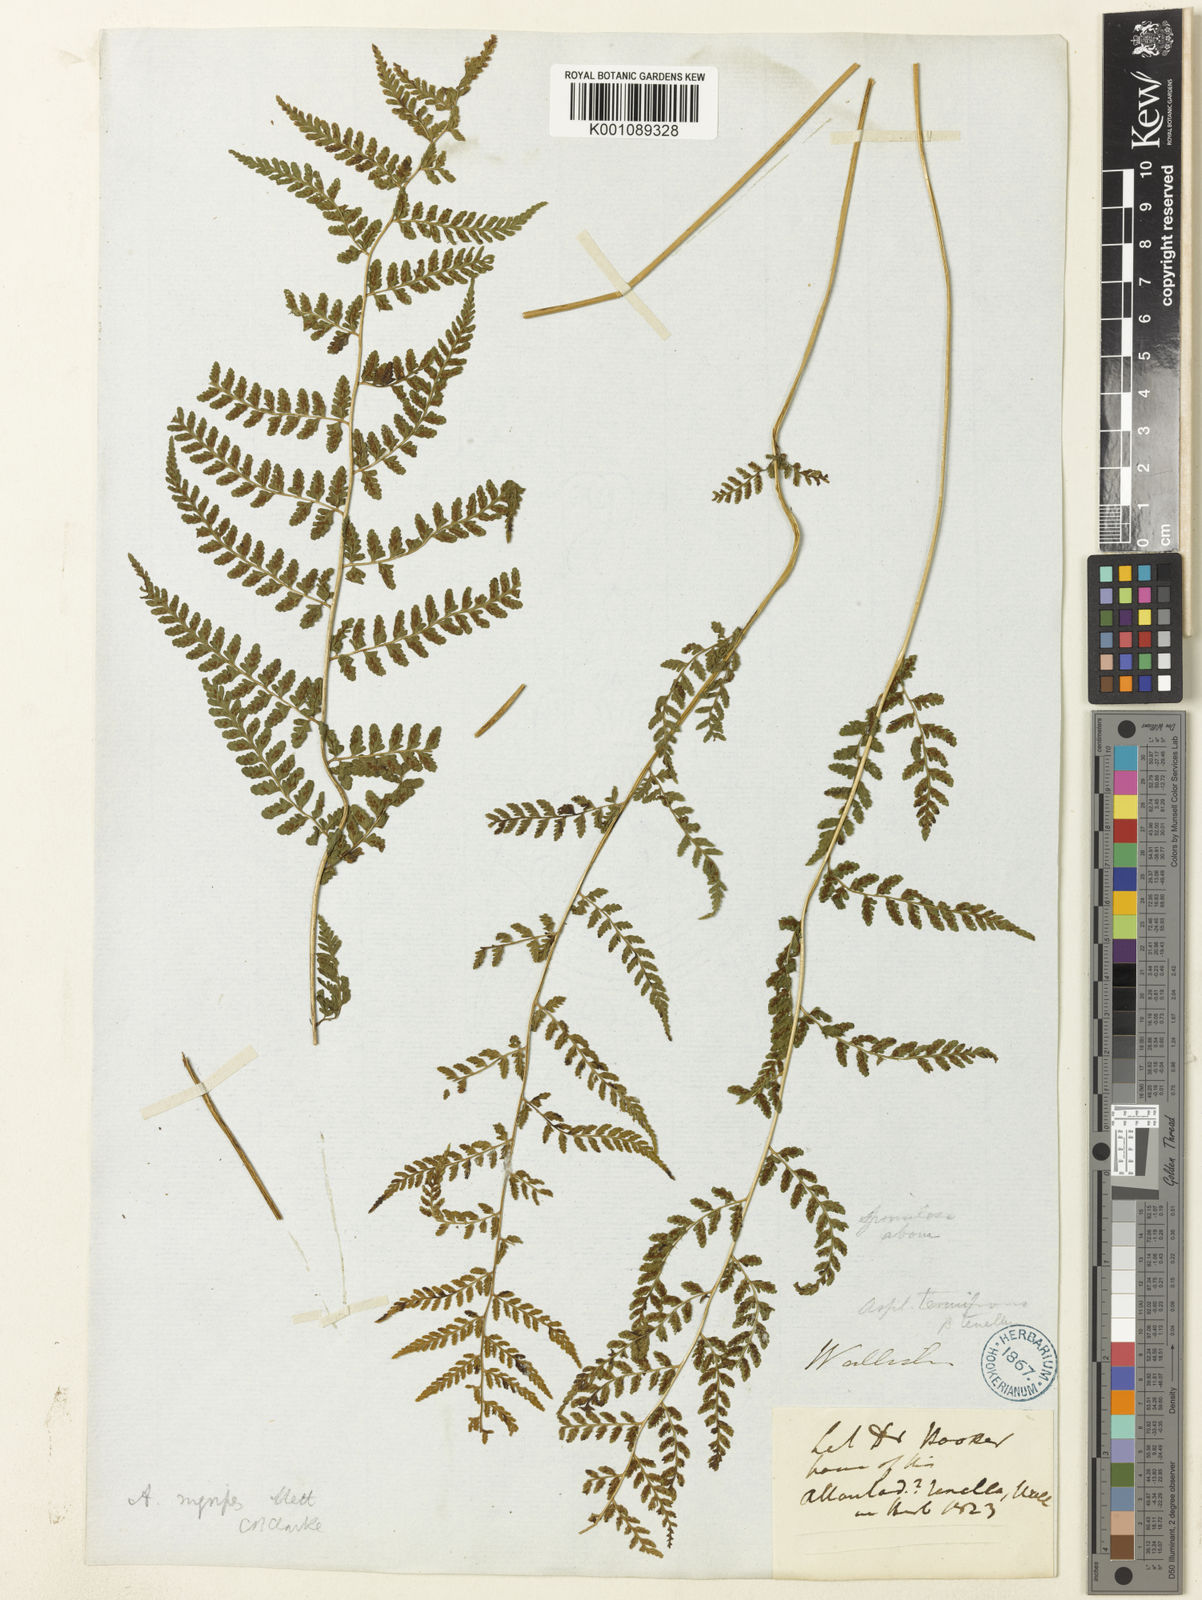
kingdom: Plantae
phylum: Tracheophyta
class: Polypodiopsida
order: Polypodiales
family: Athyriaceae
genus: Athyrium
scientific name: Athyrium setiferum
